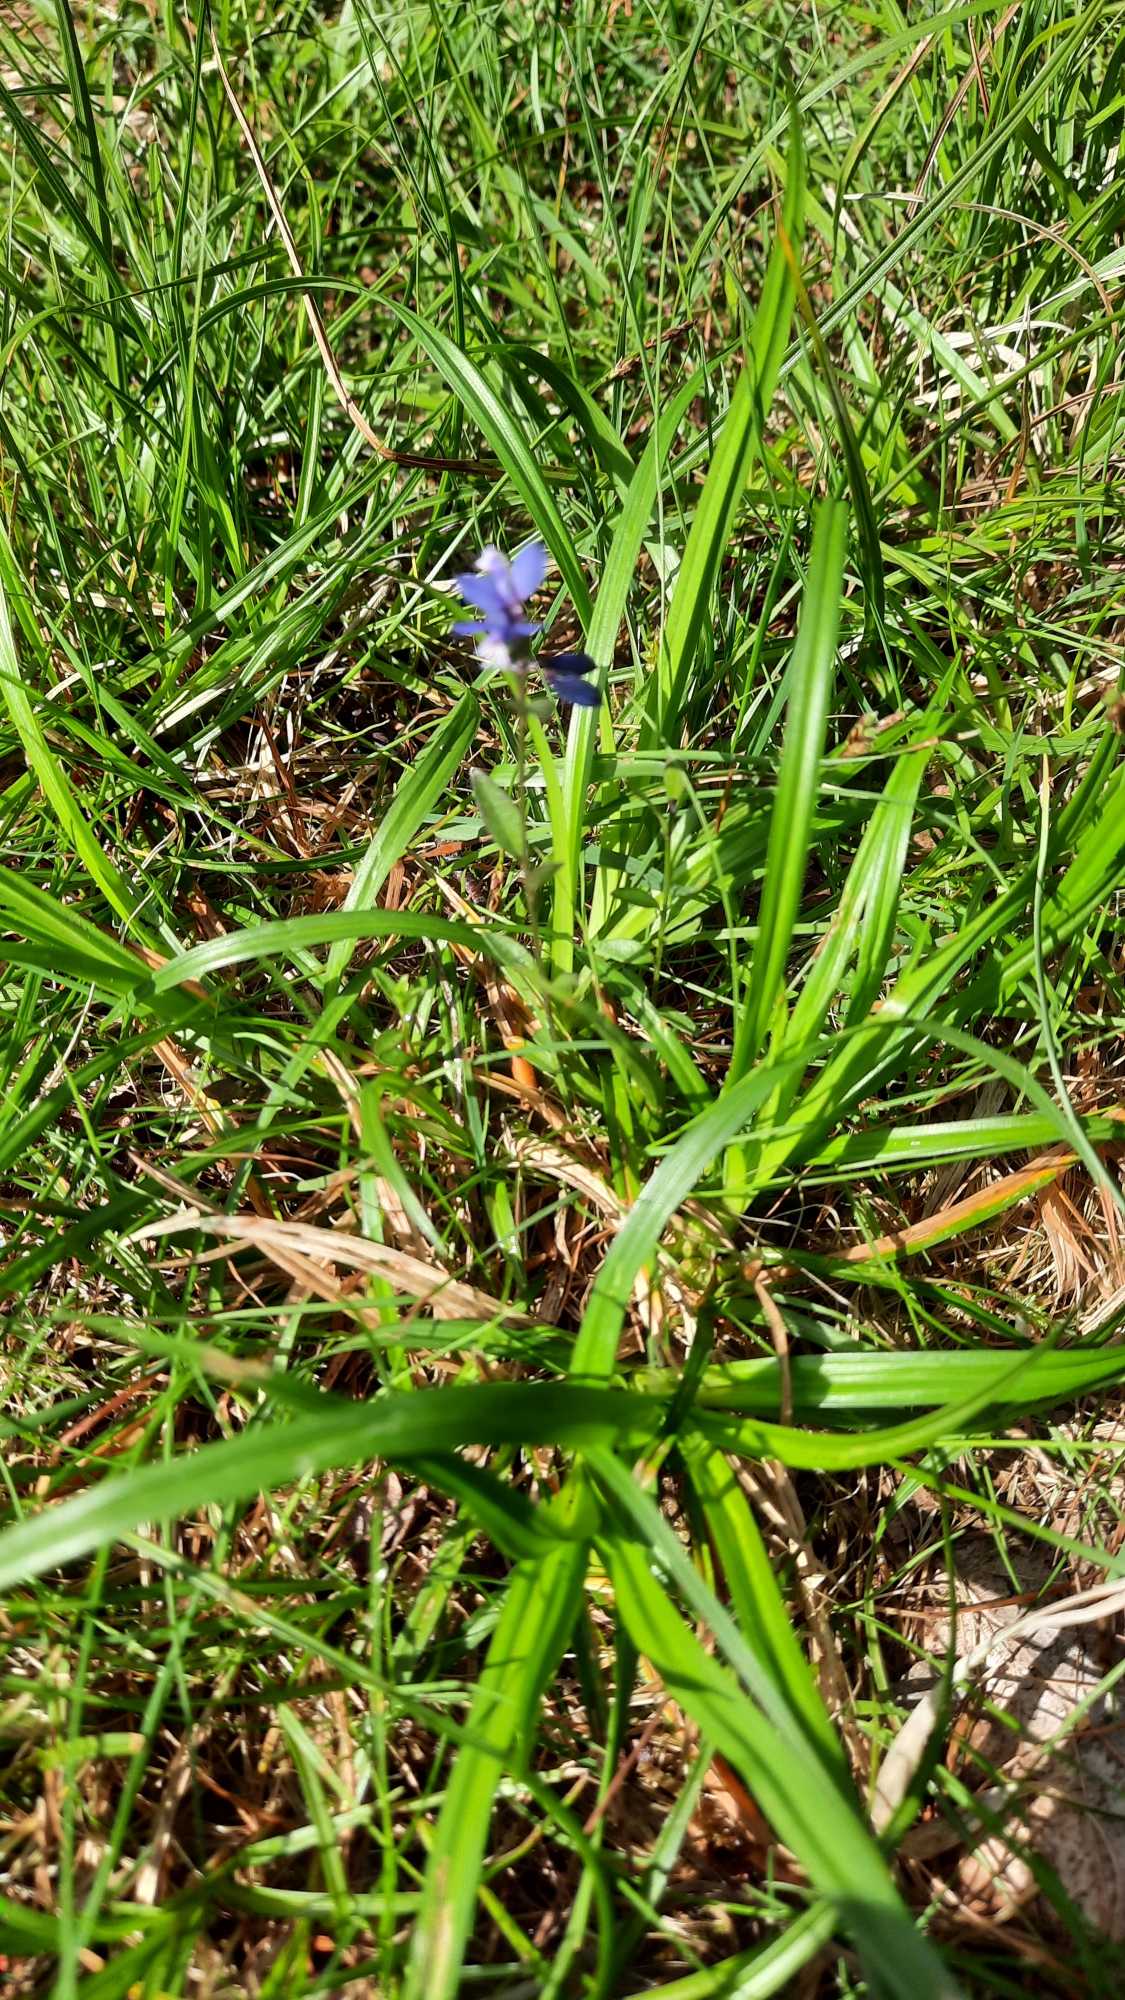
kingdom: Plantae
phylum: Tracheophyta
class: Magnoliopsida
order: Fabales
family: Polygalaceae
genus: Polygala
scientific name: Polygala serpyllifolia
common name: Spæd mælkeurt
